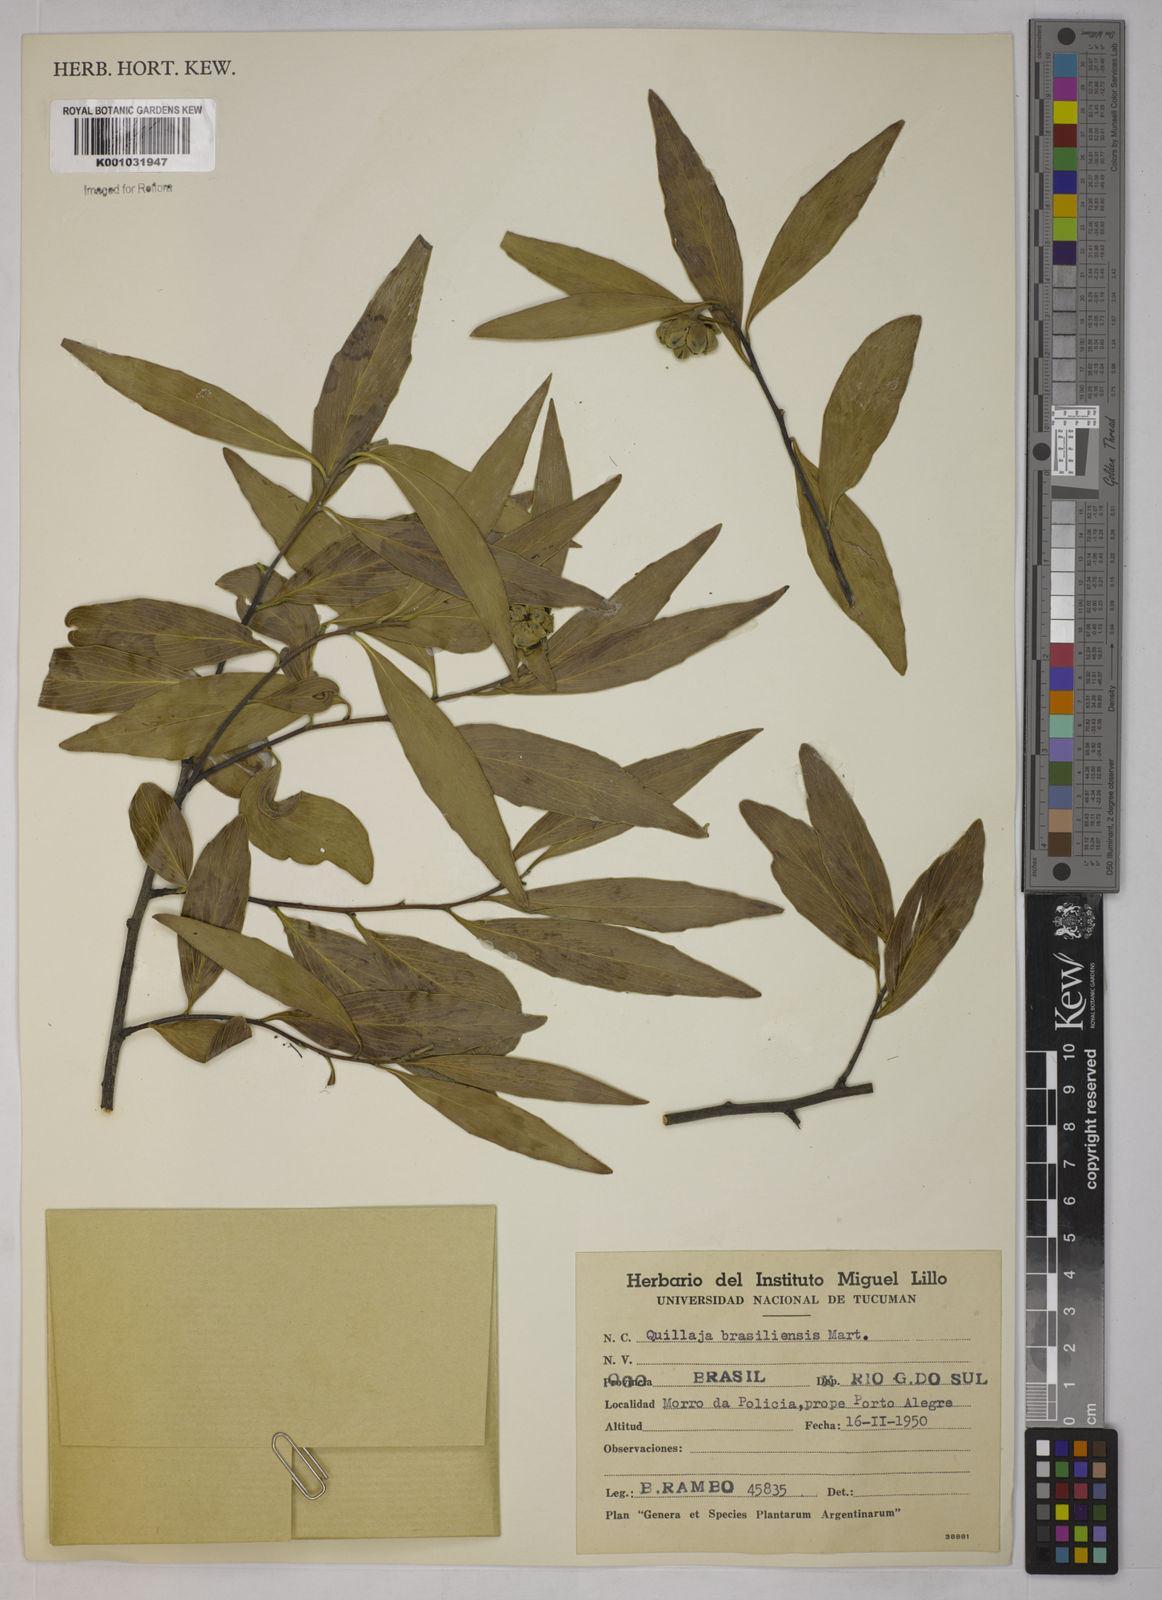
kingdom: Plantae
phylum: Tracheophyta
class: Magnoliopsida
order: Fabales
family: Quillajaceae
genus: Quillaja
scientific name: Quillaja brasiliensis
